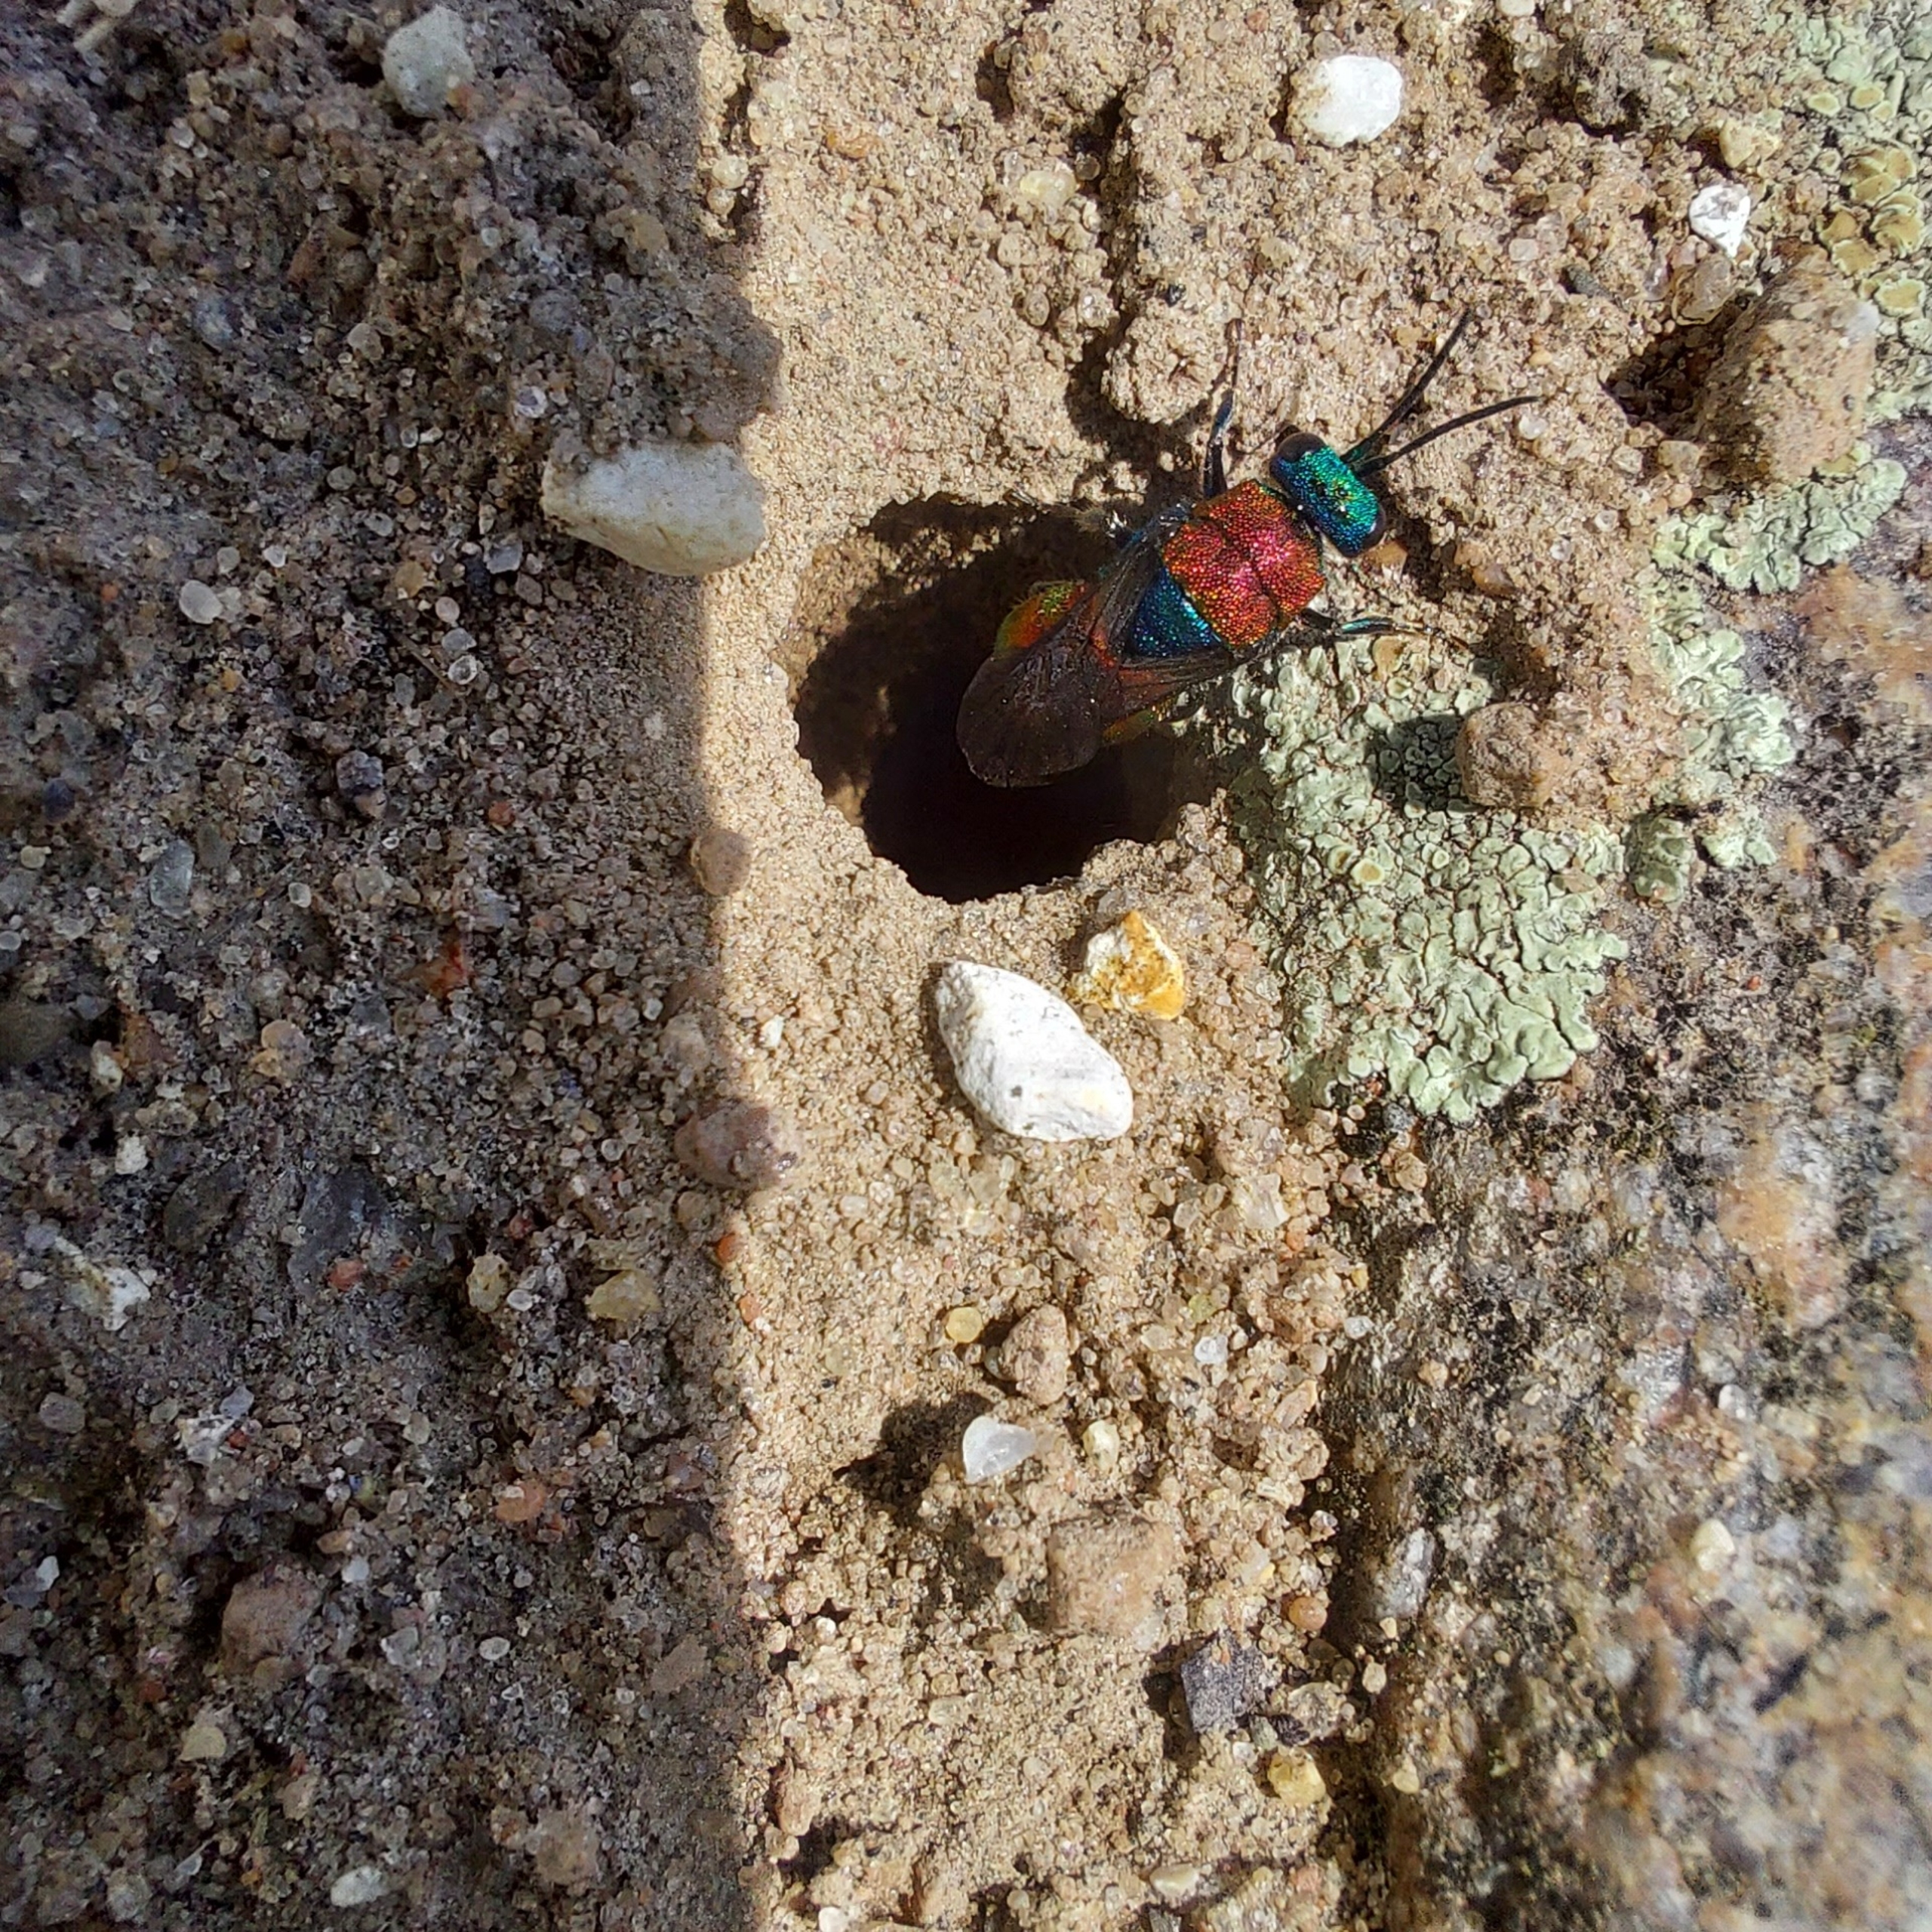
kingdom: Animalia
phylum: Arthropoda
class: Insecta
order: Hymenoptera
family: Chrysididae
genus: Hedychrum
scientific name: Hedychrum
